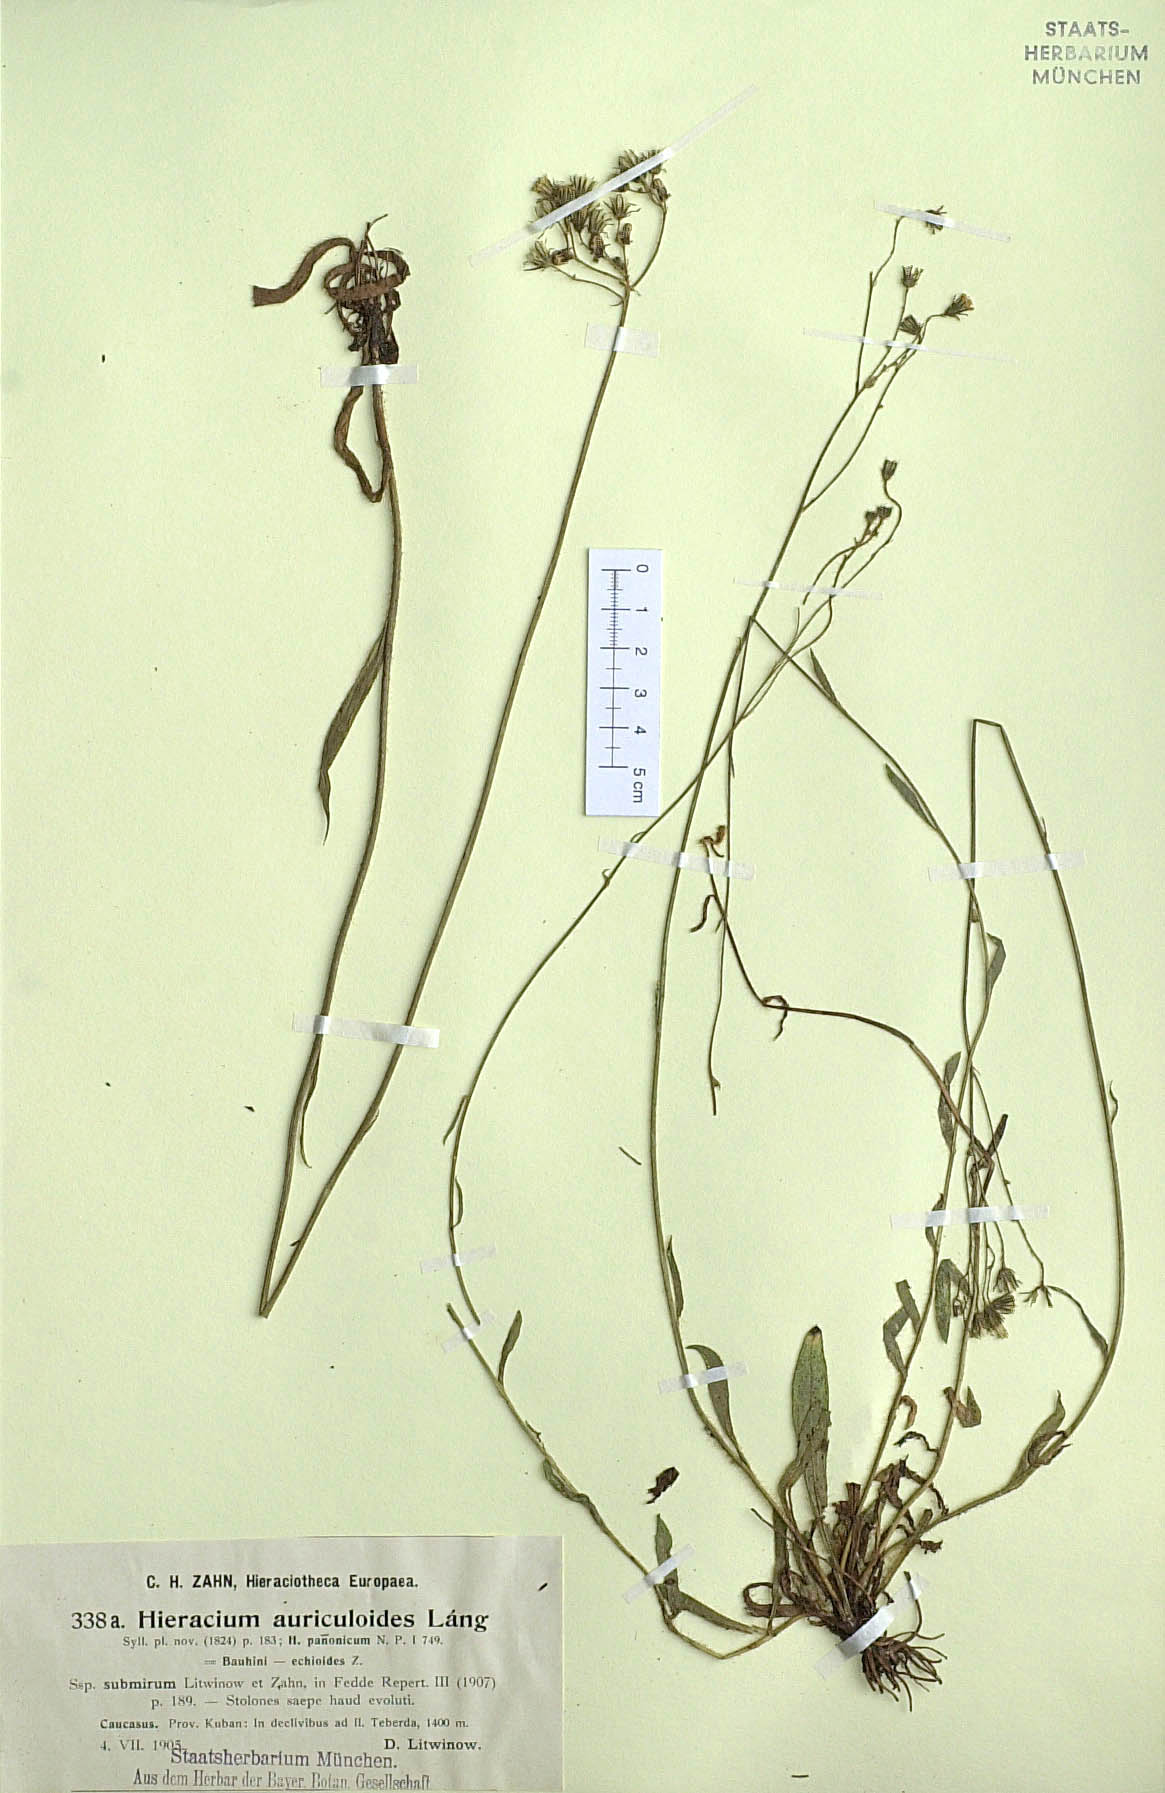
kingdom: Plantae
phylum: Tracheophyta
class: Magnoliopsida
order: Asterales
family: Asteraceae
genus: Pilosella
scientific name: Pilosella auriculoides
